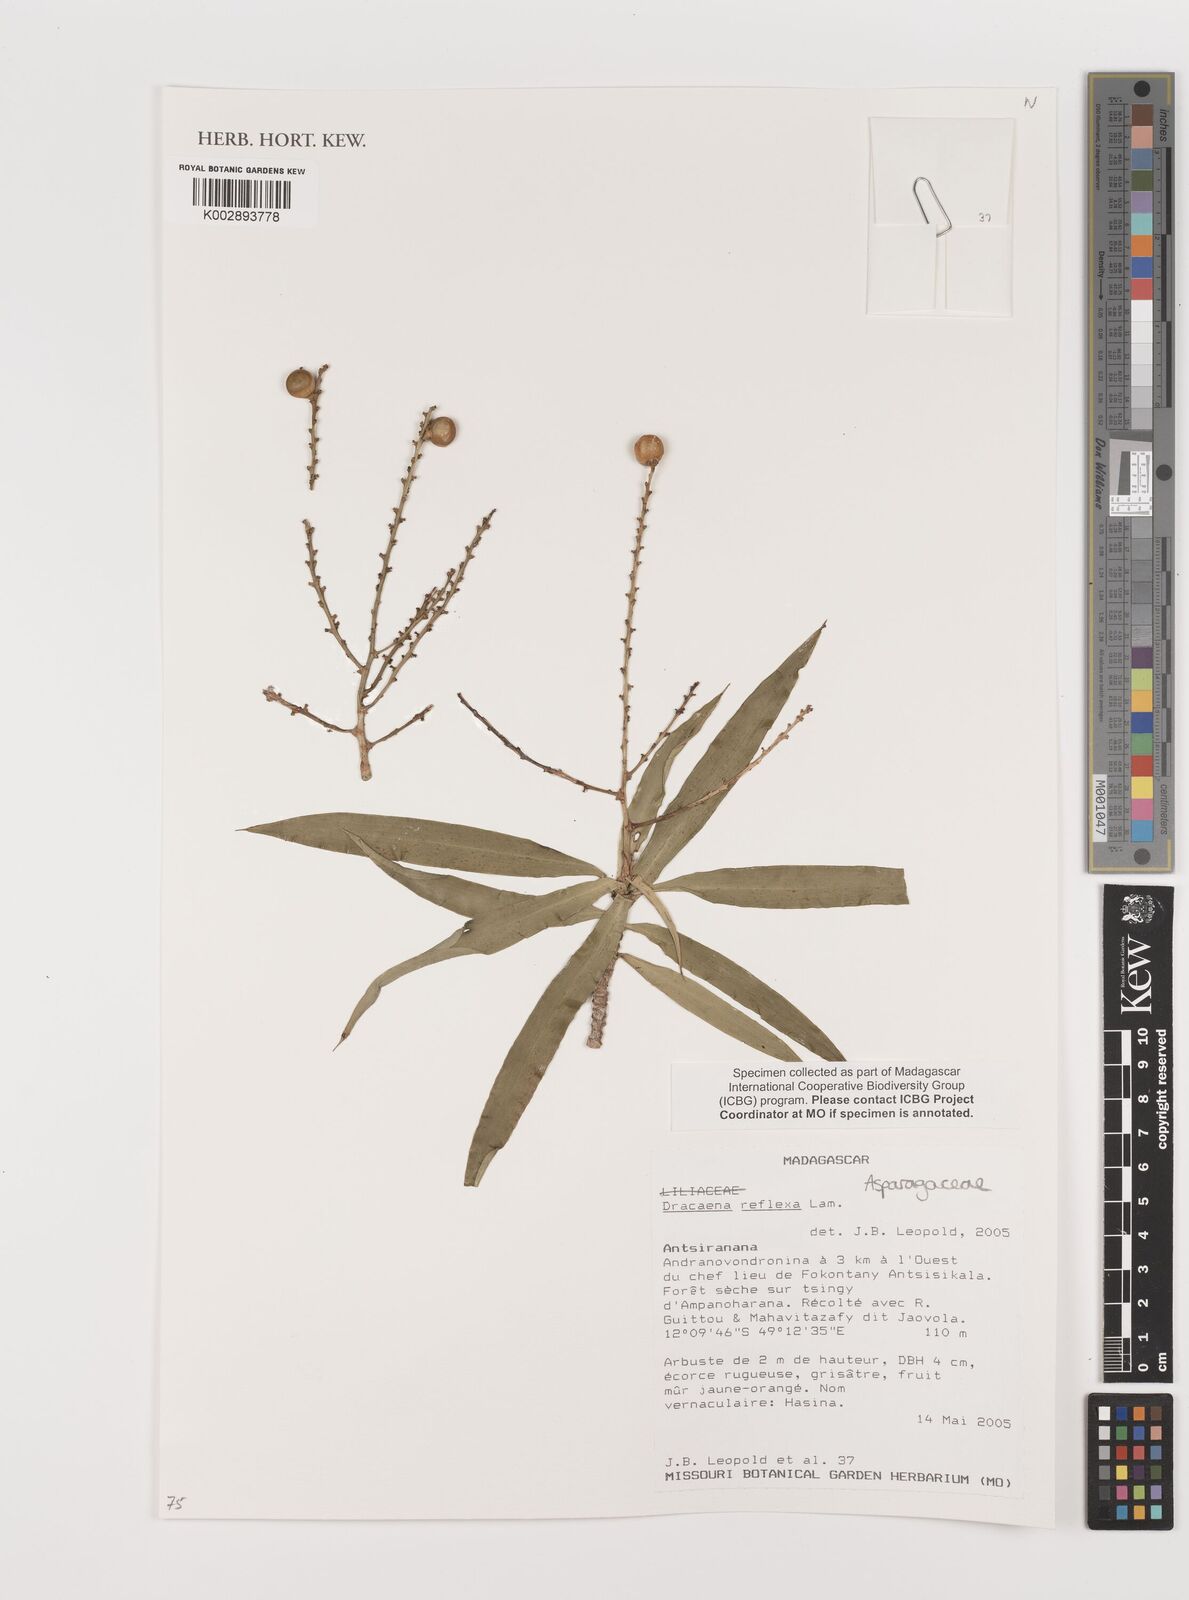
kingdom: Plantae
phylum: Tracheophyta
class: Liliopsida
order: Asparagales
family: Asparagaceae
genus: Dracaena
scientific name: Dracaena reflexa
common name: Song-of-india
